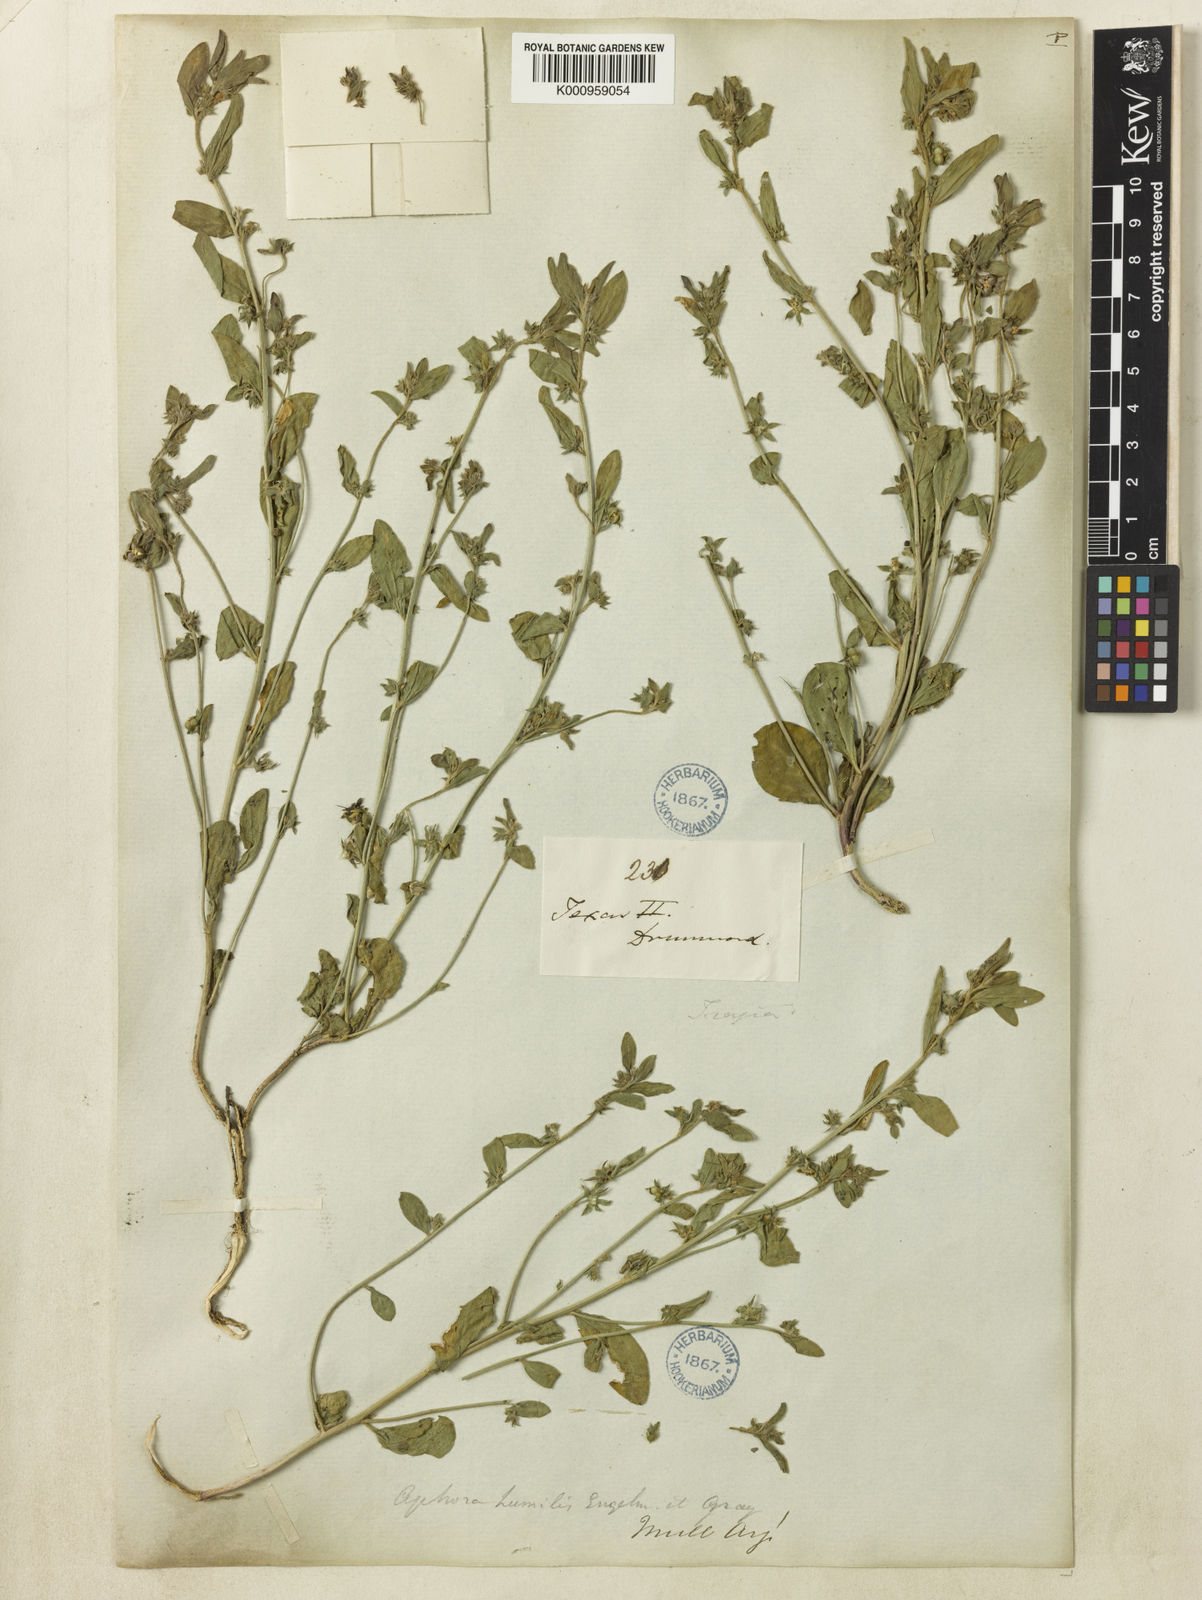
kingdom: Plantae
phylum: Tracheophyta
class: Magnoliopsida
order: Malpighiales
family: Euphorbiaceae
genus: Ditaxis
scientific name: Ditaxis humilis
